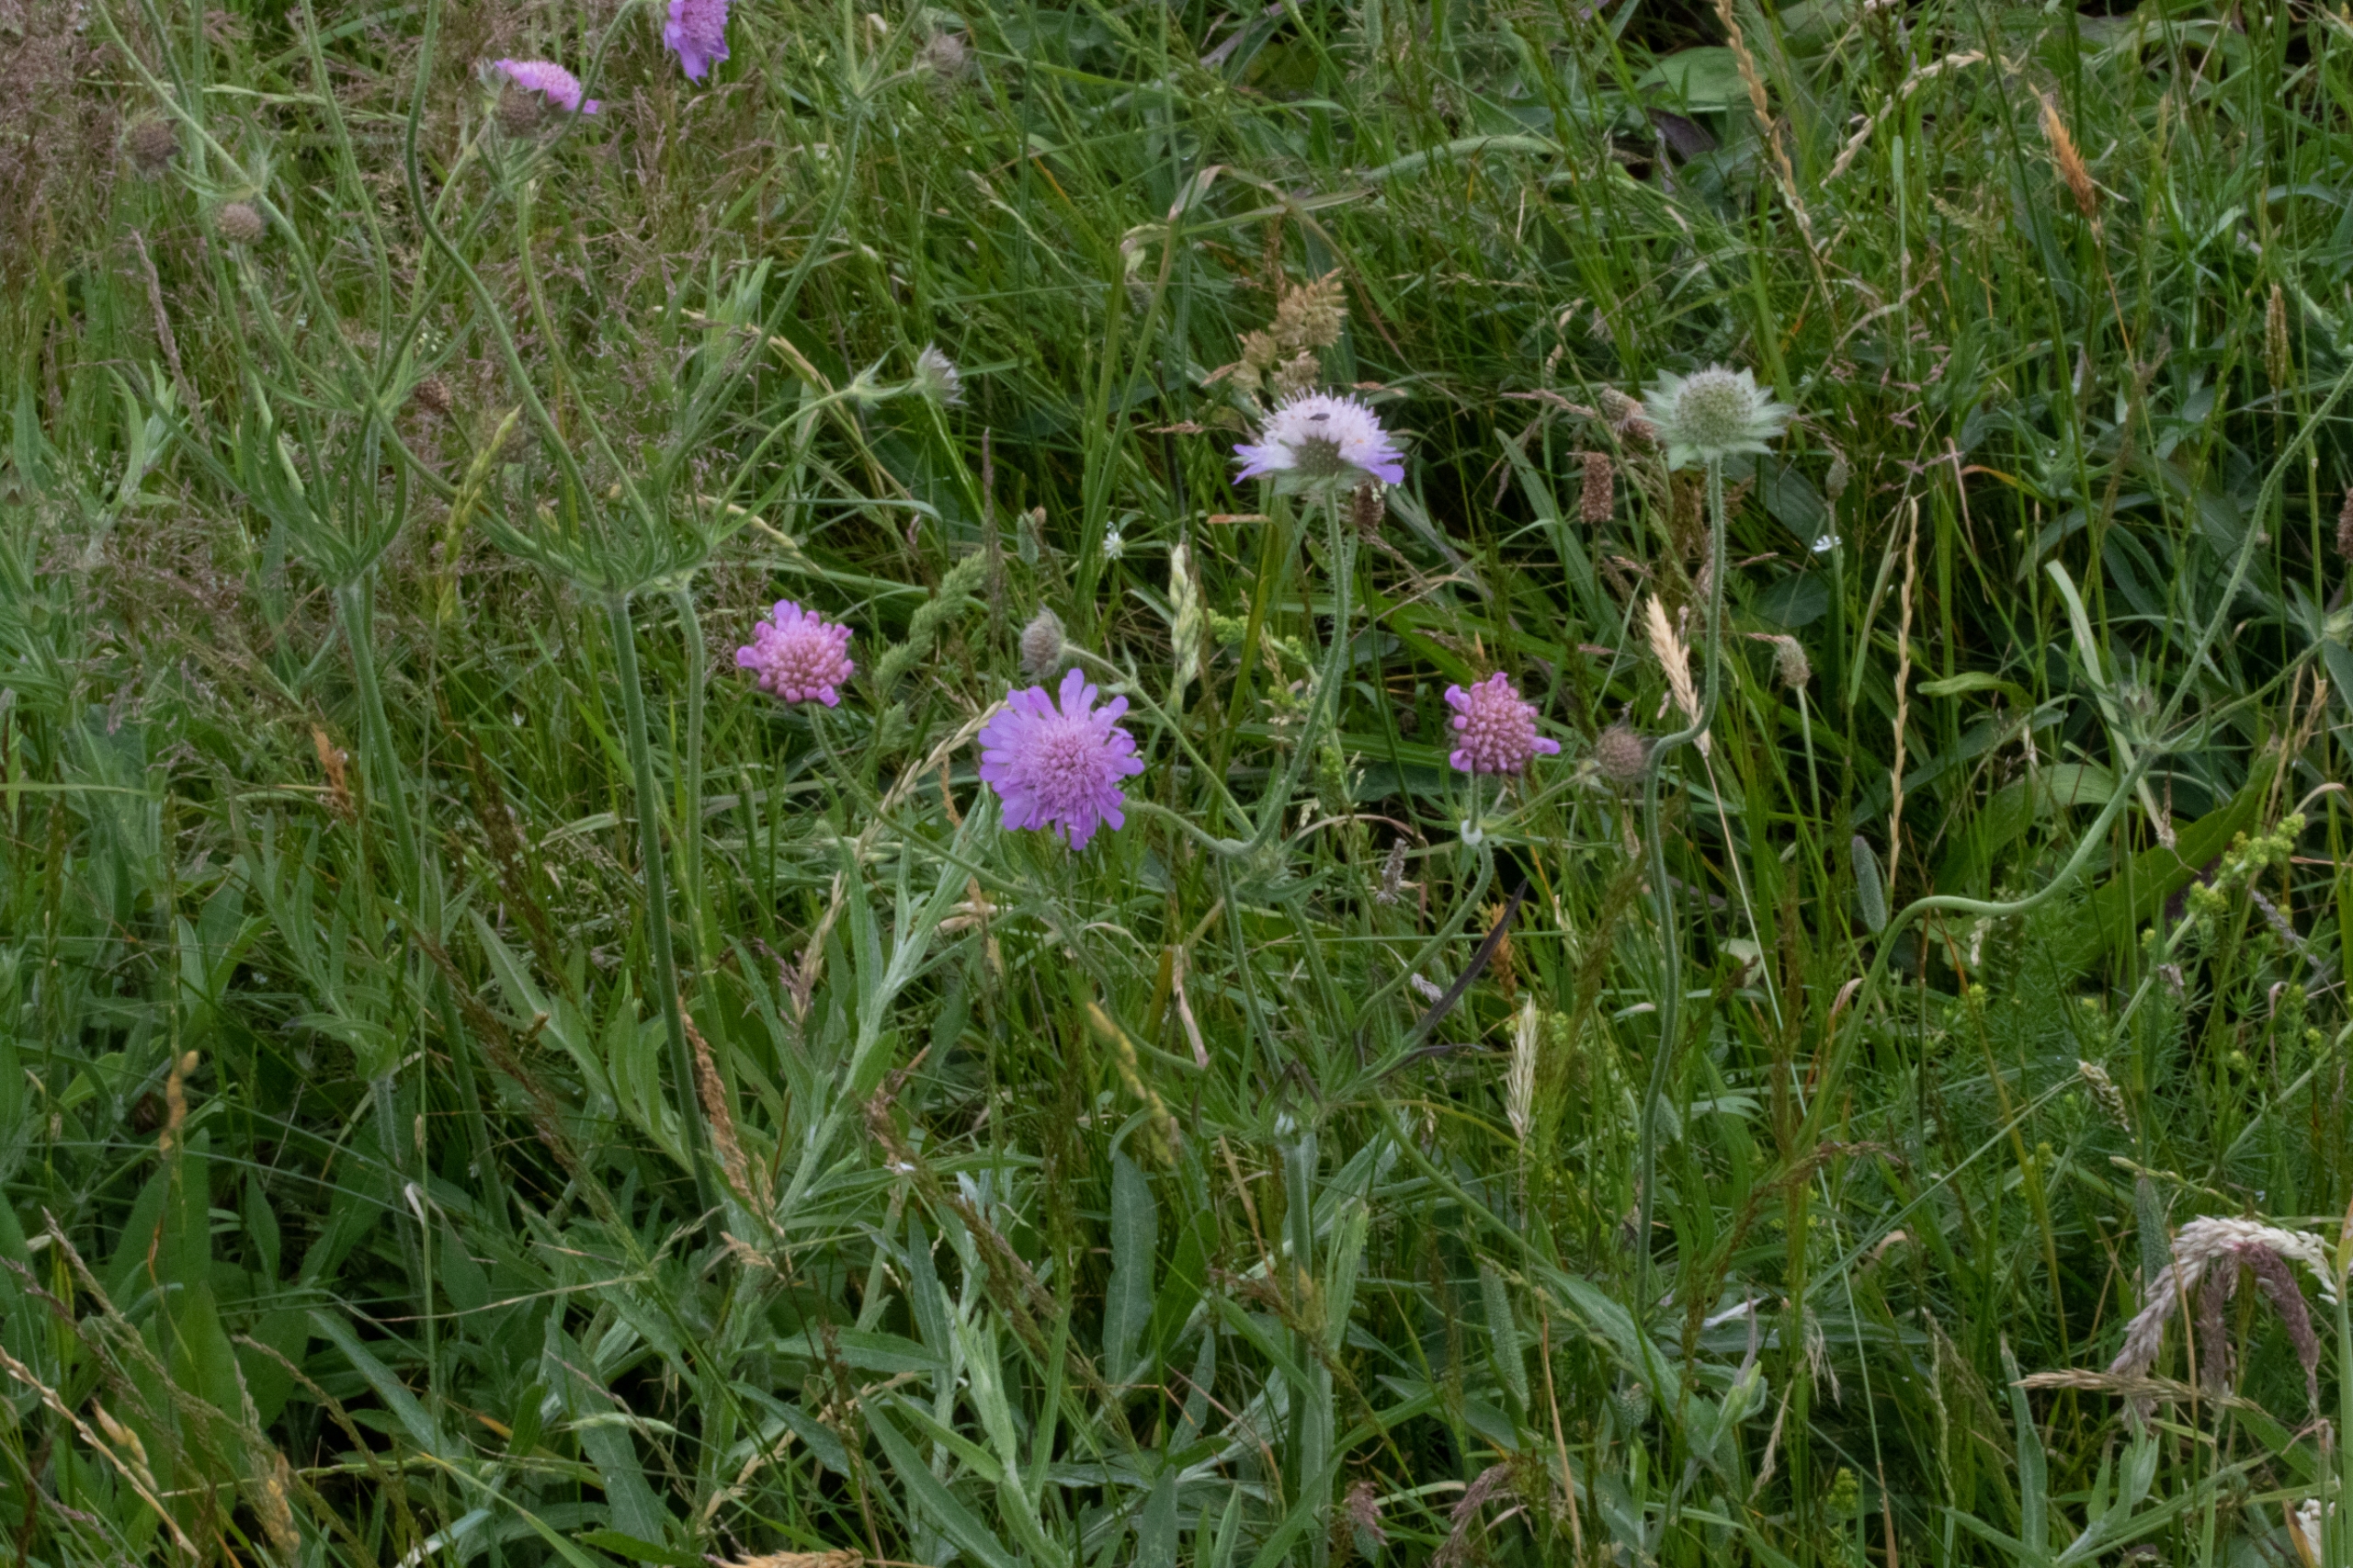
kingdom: Plantae
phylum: Tracheophyta
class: Magnoliopsida
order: Dipsacales
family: Caprifoliaceae
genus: Knautia
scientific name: Knautia arvensis
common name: Blåhat
